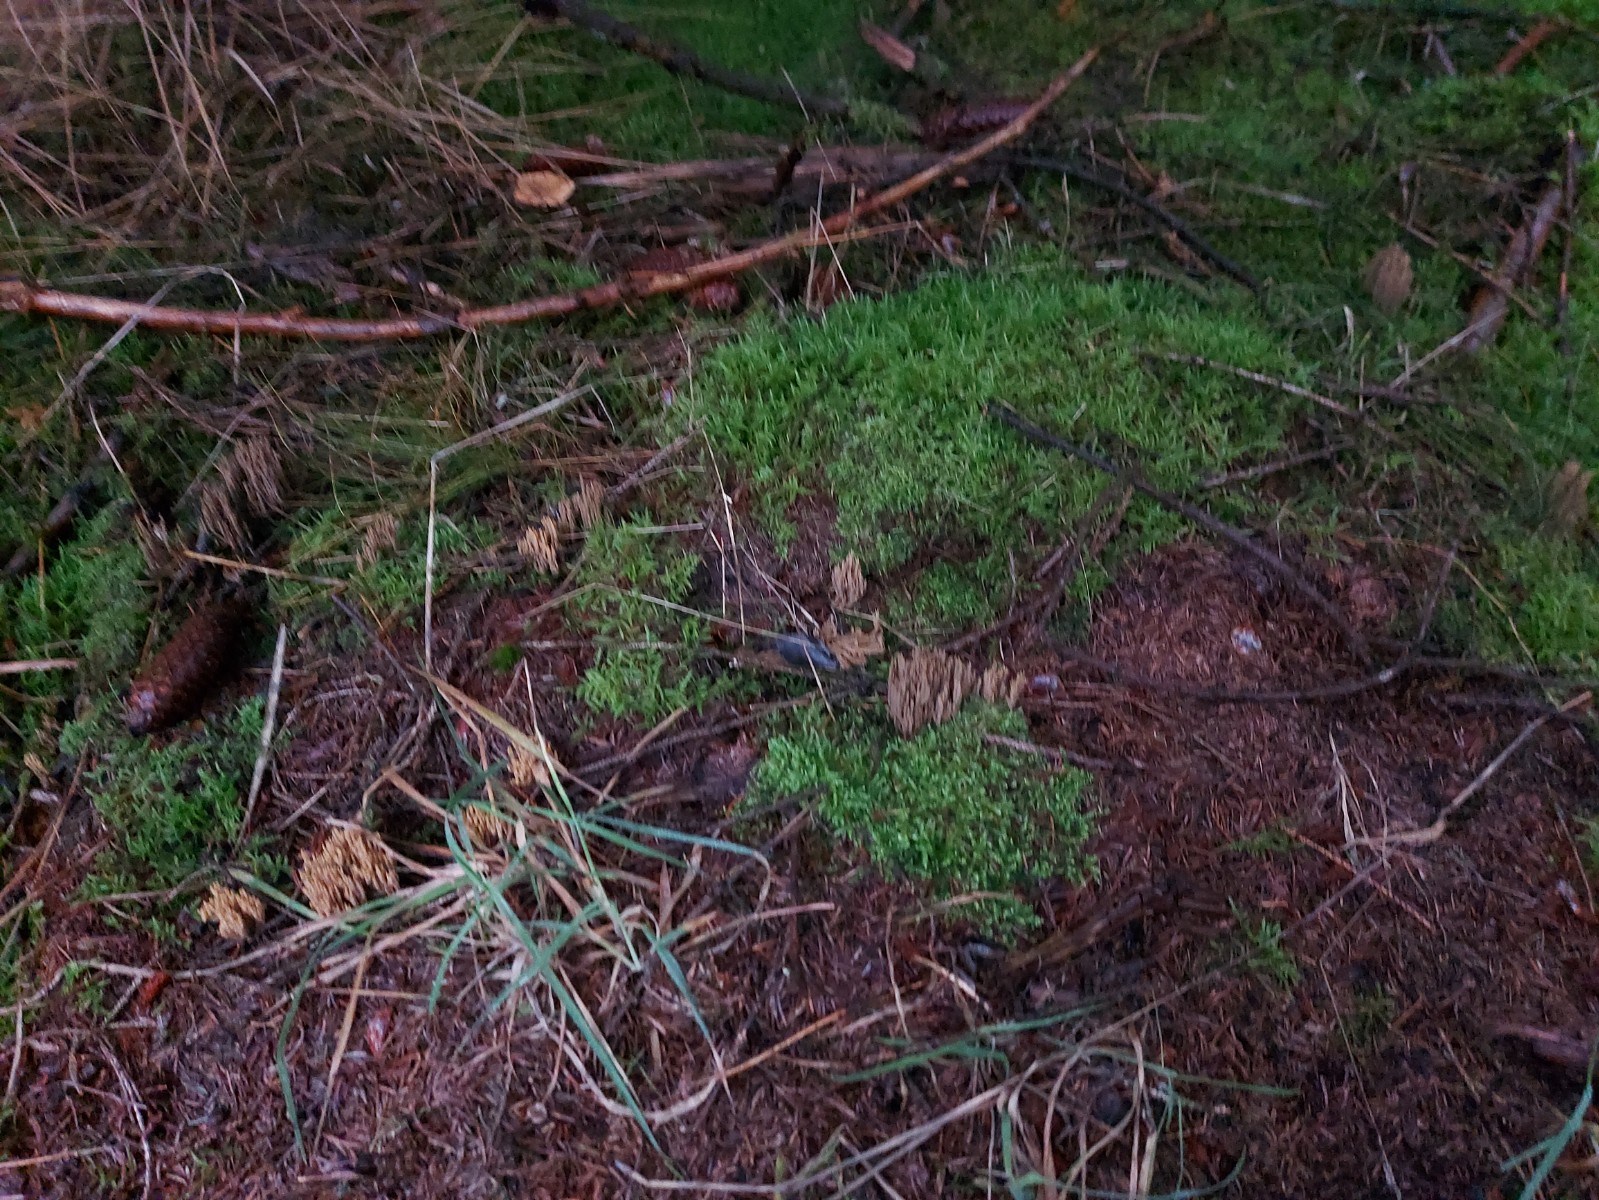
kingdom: Fungi
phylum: Basidiomycota
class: Agaricomycetes
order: Gomphales
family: Gomphaceae
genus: Phaeoclavulina
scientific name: Phaeoclavulina eumorpha
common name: gran-koralsvamp
